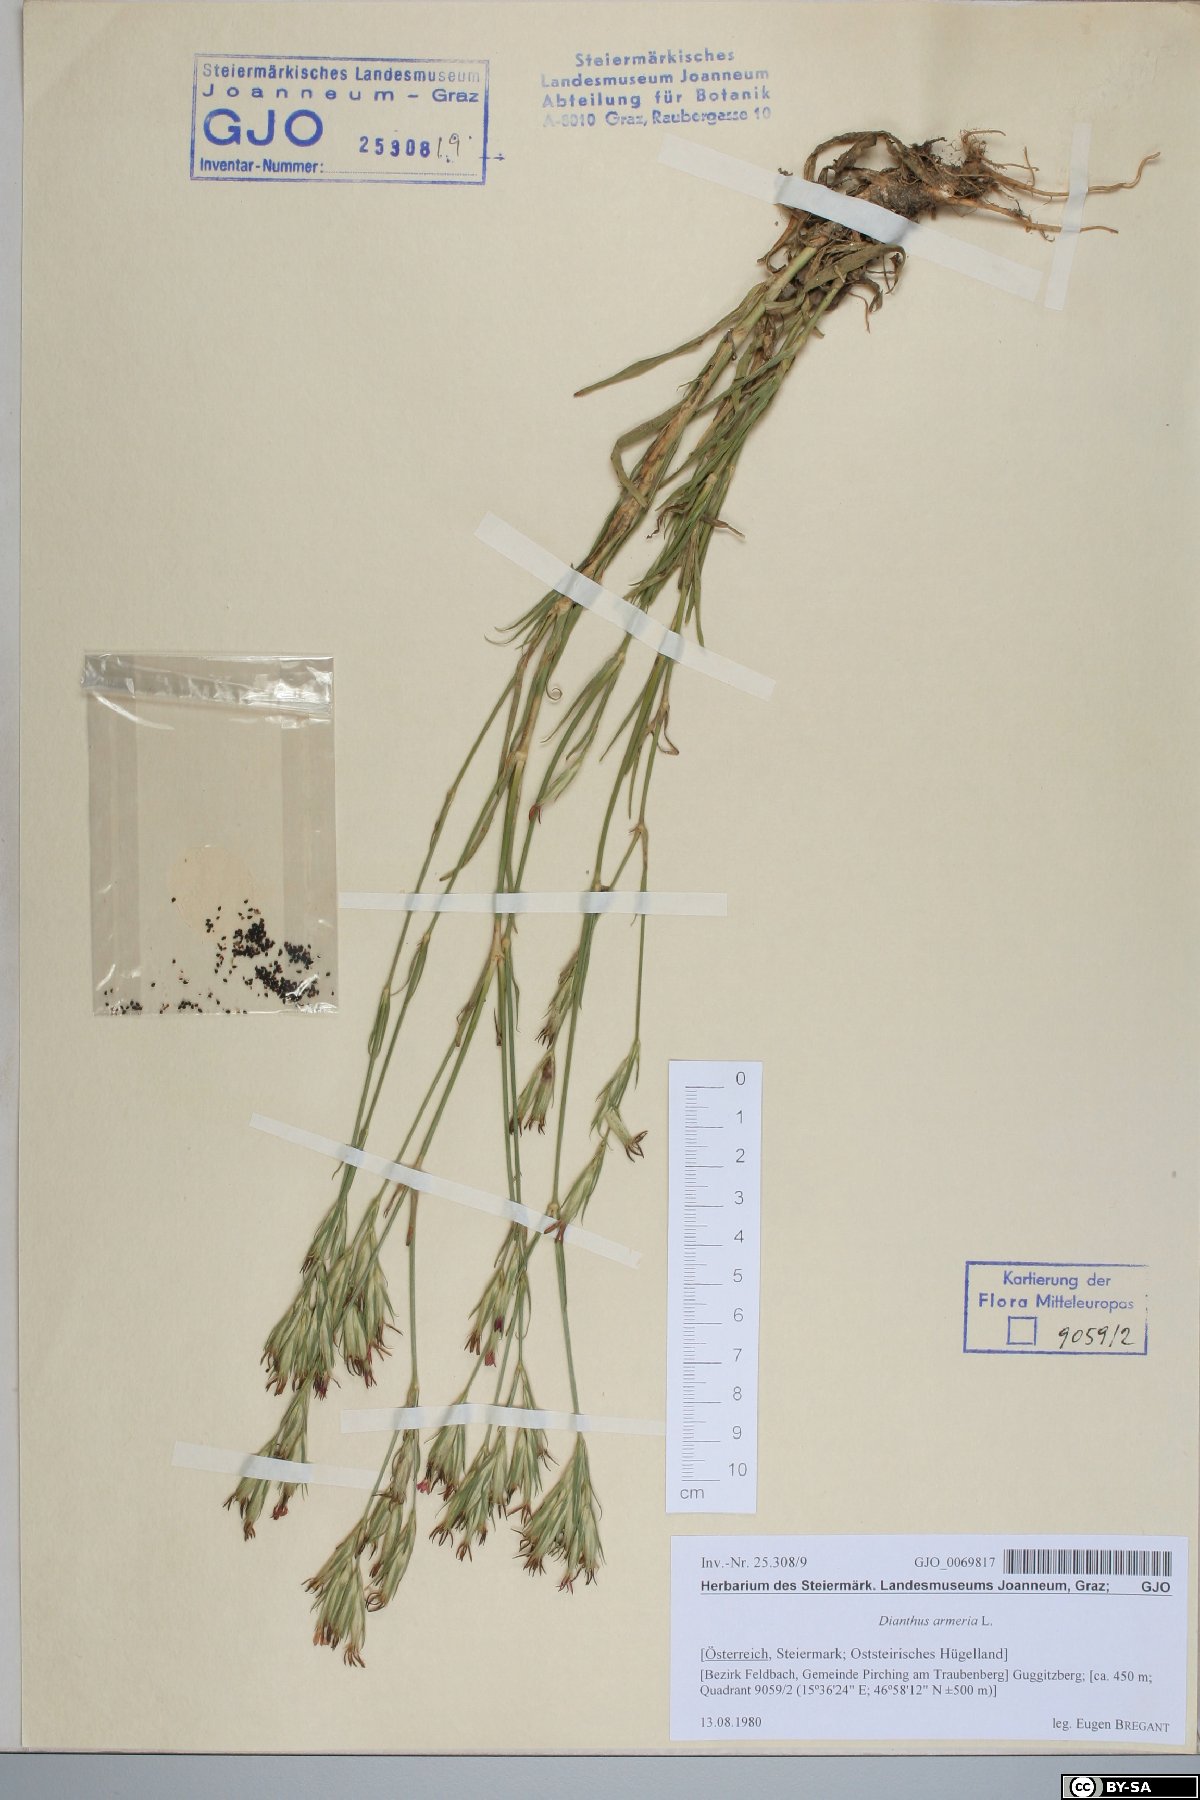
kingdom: Plantae
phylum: Tracheophyta
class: Magnoliopsida
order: Caryophyllales
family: Caryophyllaceae
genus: Dianthus
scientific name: Dianthus armeria
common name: Deptford pink
